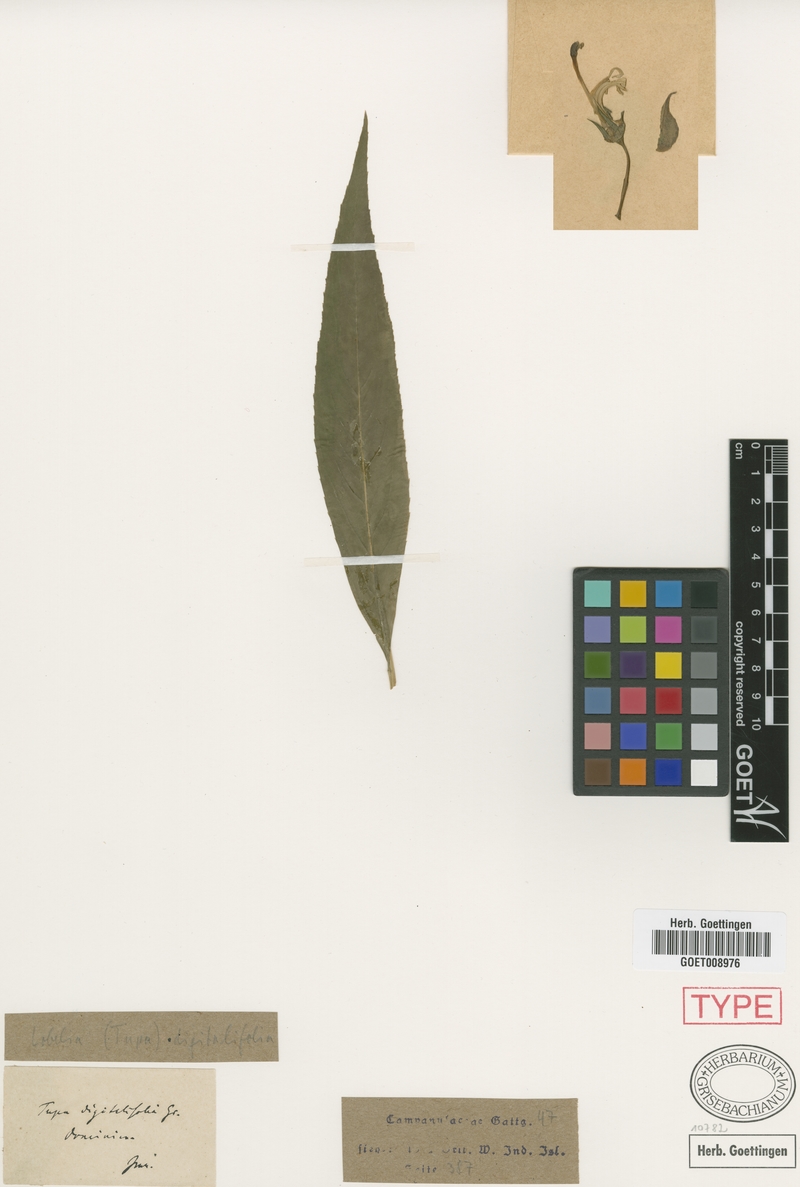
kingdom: Plantae
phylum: Tracheophyta
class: Magnoliopsida
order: Asterales
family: Campanulaceae
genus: Lobelia
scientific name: Lobelia digitalifolia
